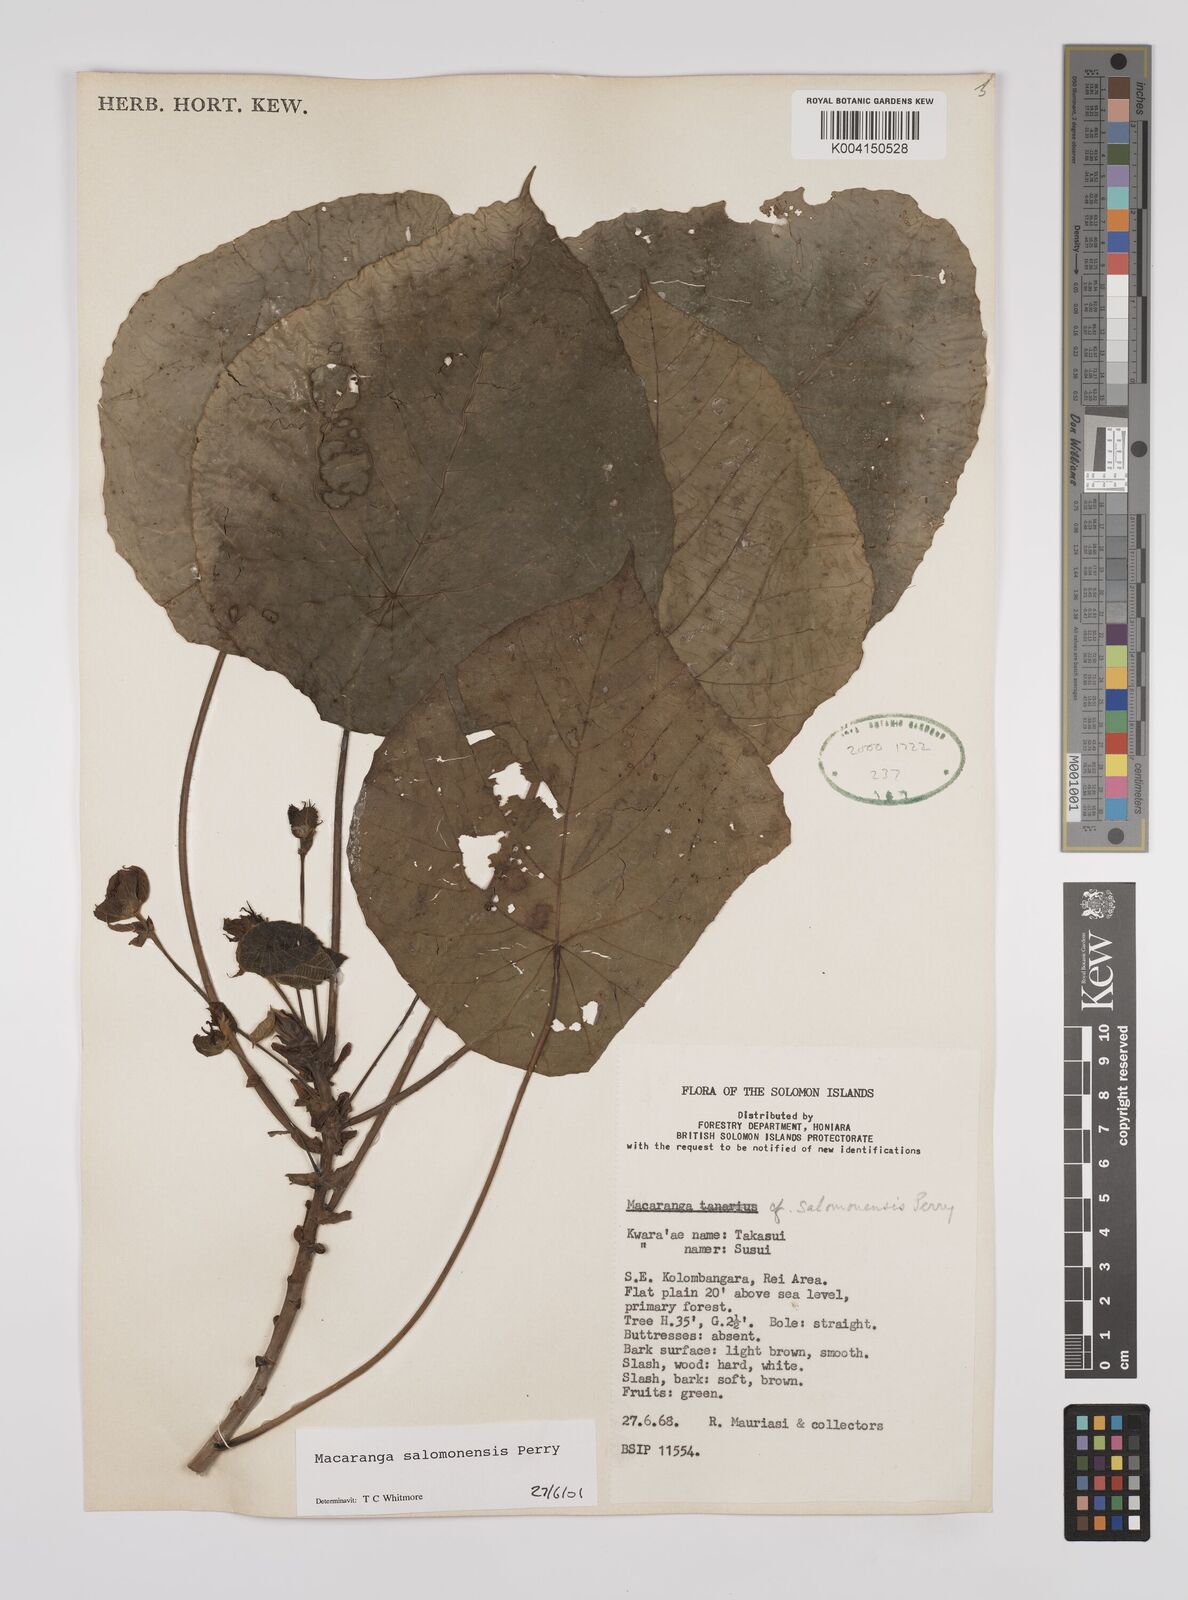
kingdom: Plantae
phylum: Tracheophyta
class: Magnoliopsida
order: Malpighiales
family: Euphorbiaceae
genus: Macaranga
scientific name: Macaranga salomonensis
